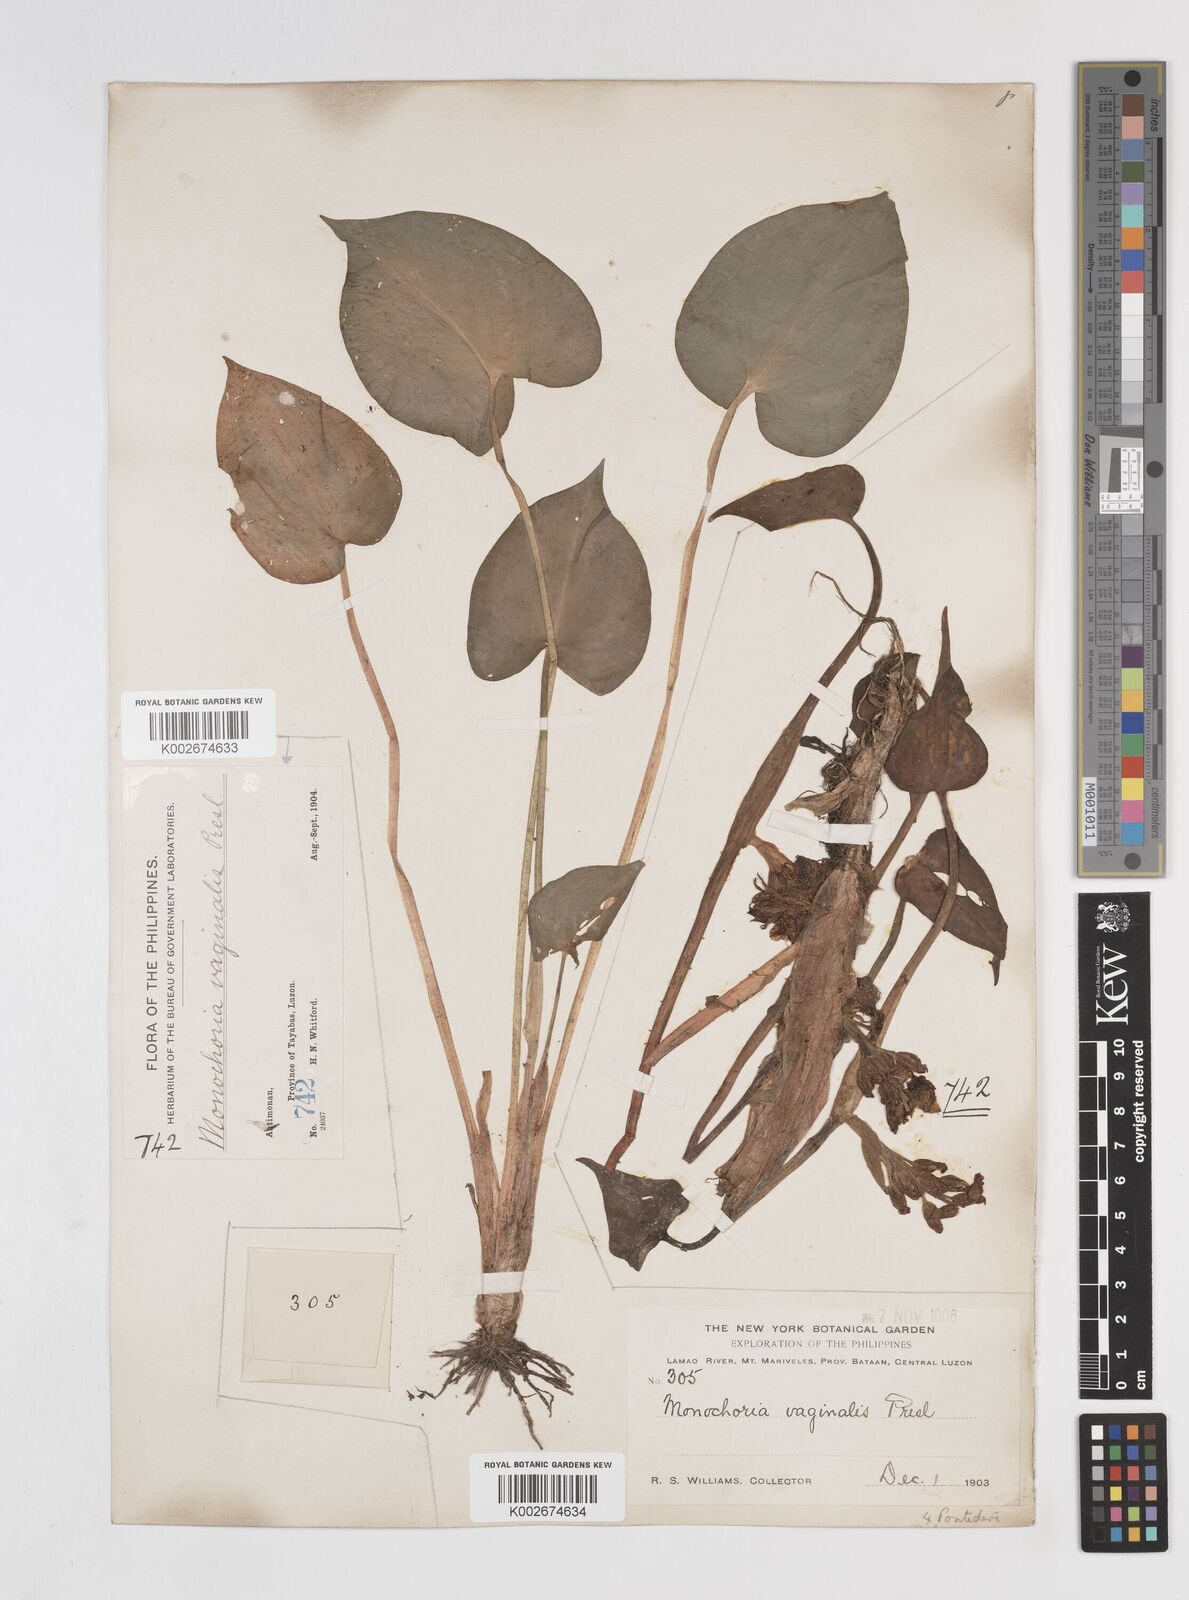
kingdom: Plantae
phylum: Tracheophyta
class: Liliopsida
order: Commelinales
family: Pontederiaceae
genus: Pontederia
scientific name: Pontederia vaginalis
